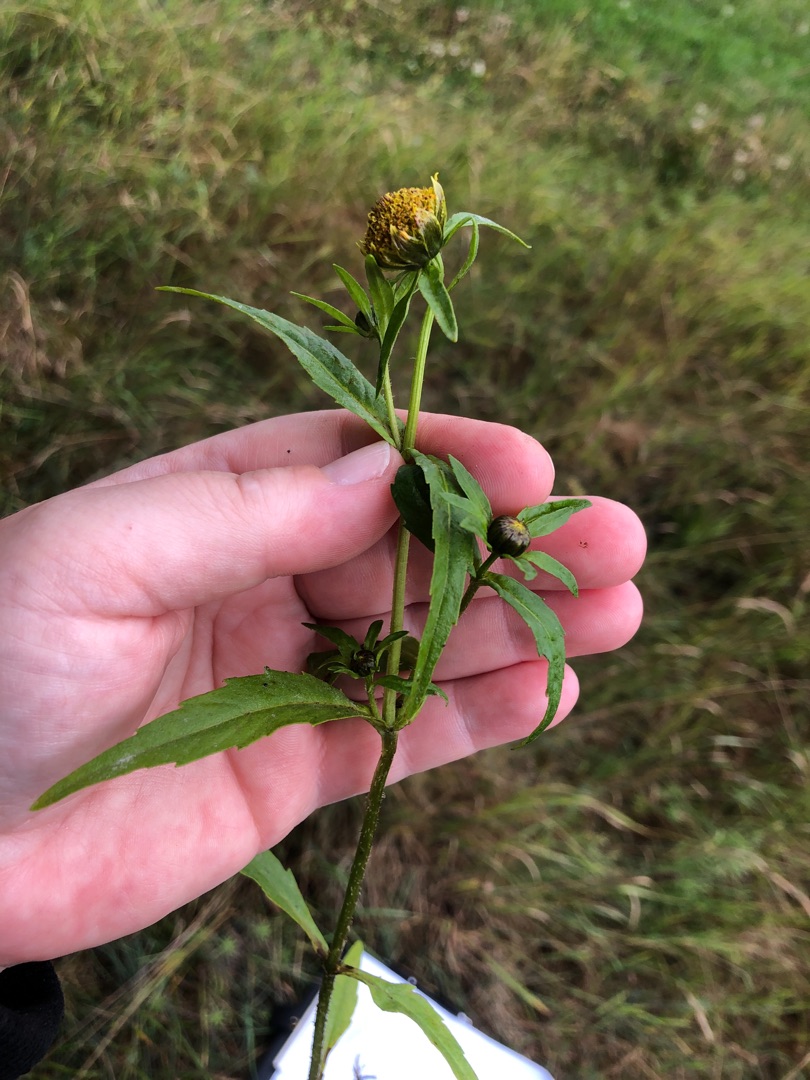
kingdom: Plantae
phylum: Tracheophyta
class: Magnoliopsida
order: Asterales
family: Asteraceae
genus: Bidens
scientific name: Bidens cernua
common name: Nikkende brøndsel
